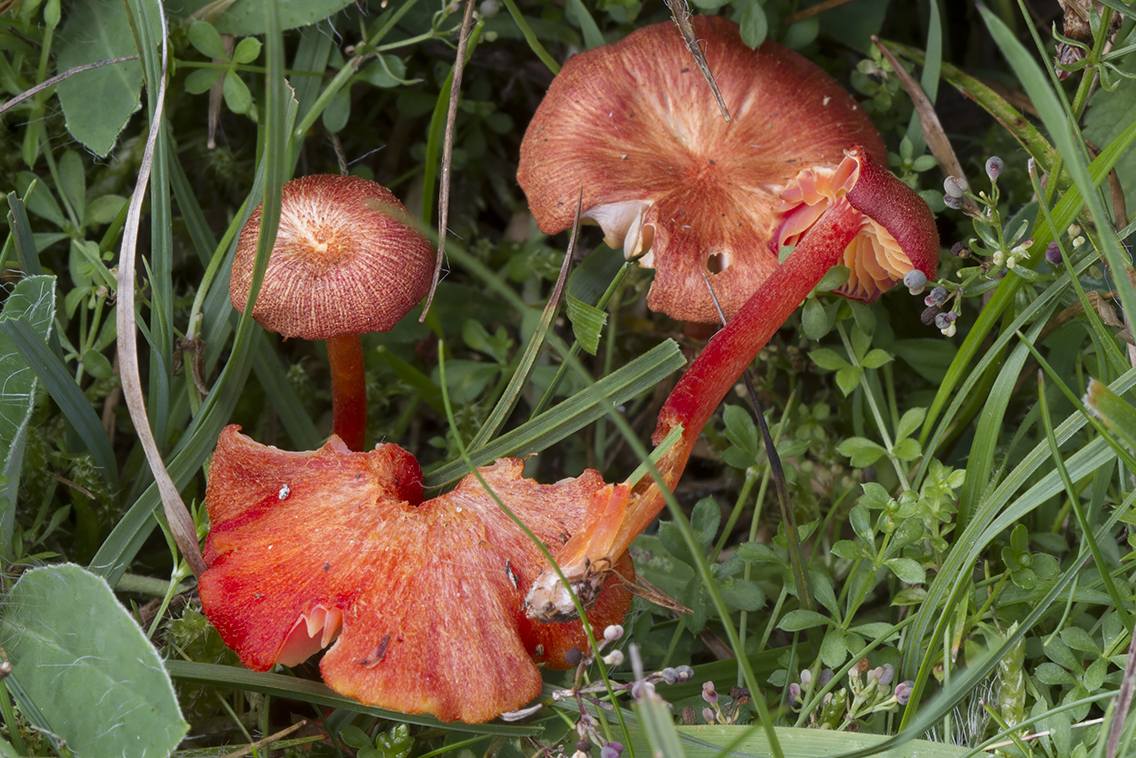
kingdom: Fungi
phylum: Basidiomycota
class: Agaricomycetes
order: Agaricales
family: Hygrophoraceae
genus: Hygrocybe
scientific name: Hygrocybe helobia
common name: hvidløgs-vokshat
